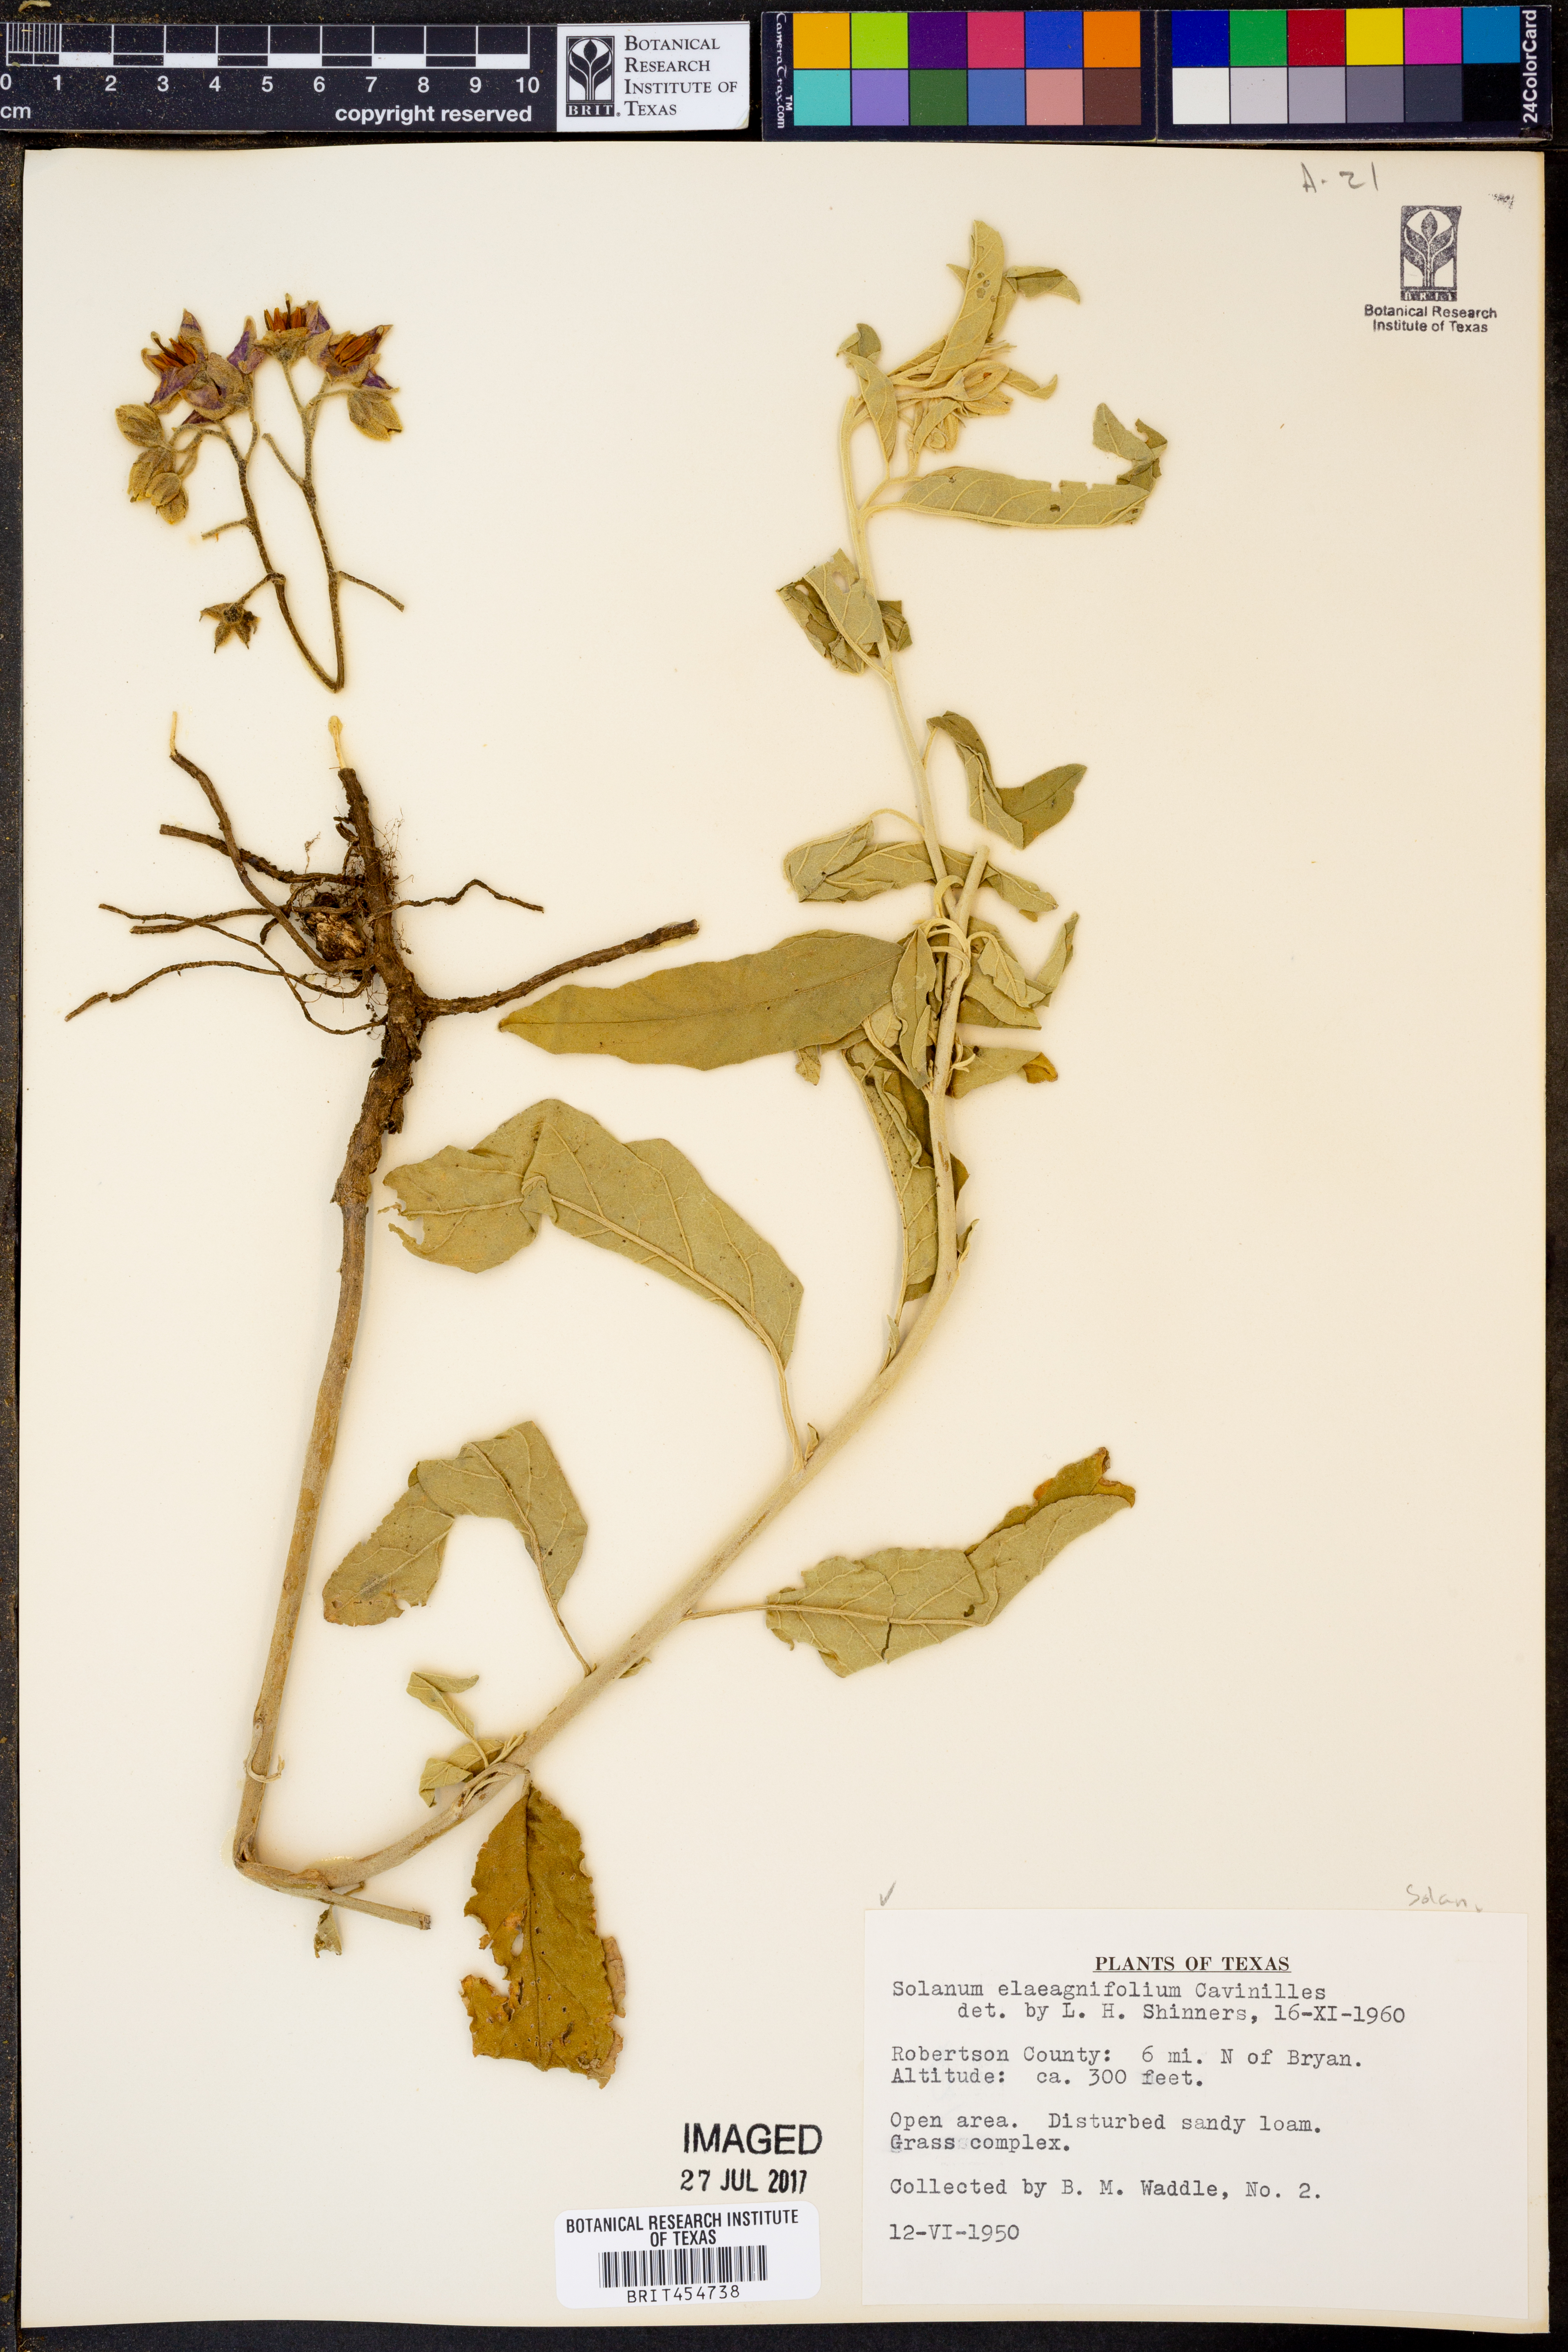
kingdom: Plantae
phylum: Tracheophyta
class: Magnoliopsida
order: Solanales
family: Solanaceae
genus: Solanum
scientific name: Solanum elaeagnifolium
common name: Silverleaf nightshade
